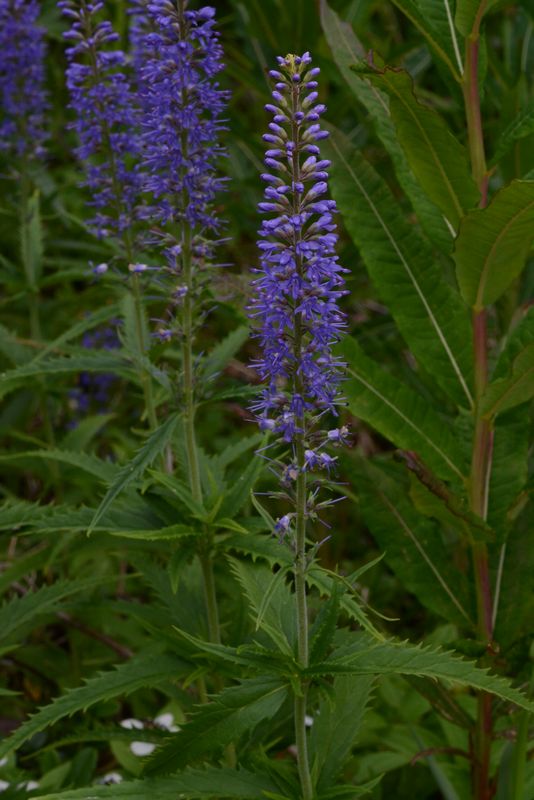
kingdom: Plantae
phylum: Tracheophyta
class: Magnoliopsida
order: Lamiales
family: Plantaginaceae
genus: Veronica
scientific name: Veronica longifolia
